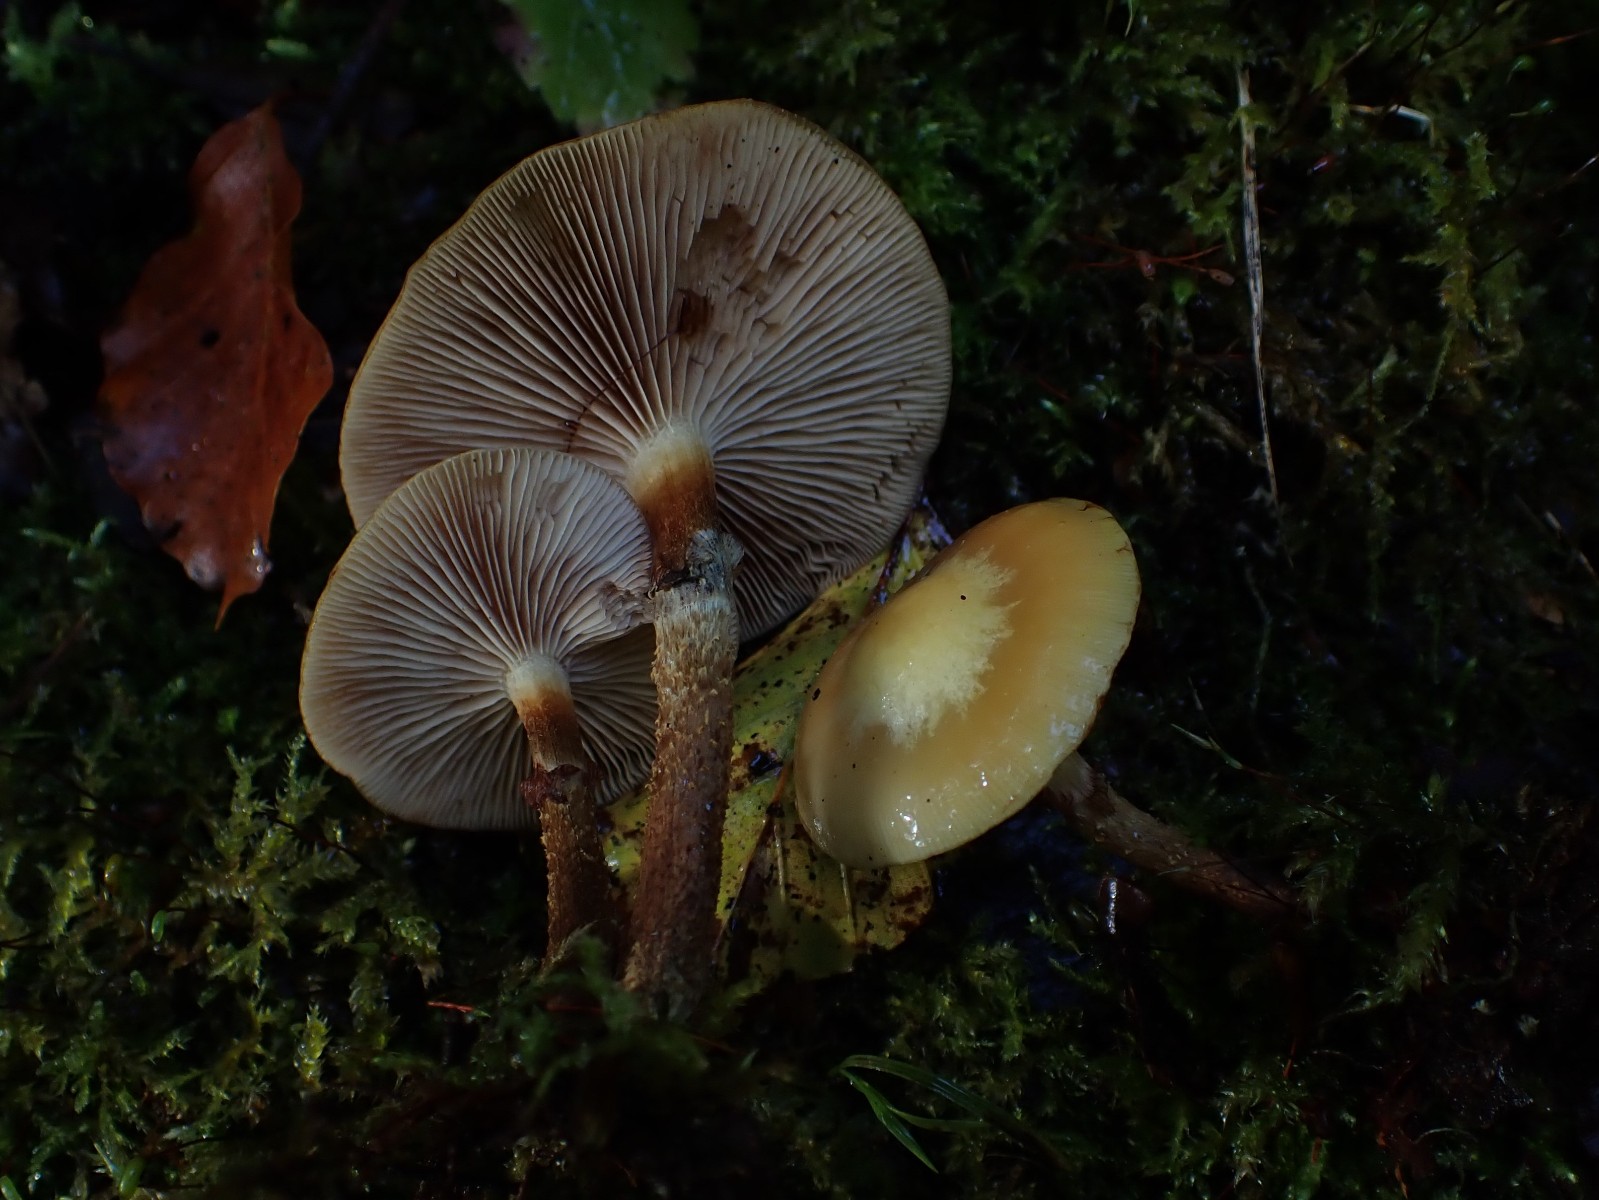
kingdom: Fungi
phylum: Basidiomycota
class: Agaricomycetes
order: Agaricales
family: Strophariaceae
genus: Kuehneromyces
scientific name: Kuehneromyces mutabilis
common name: foranderlig skælhat
